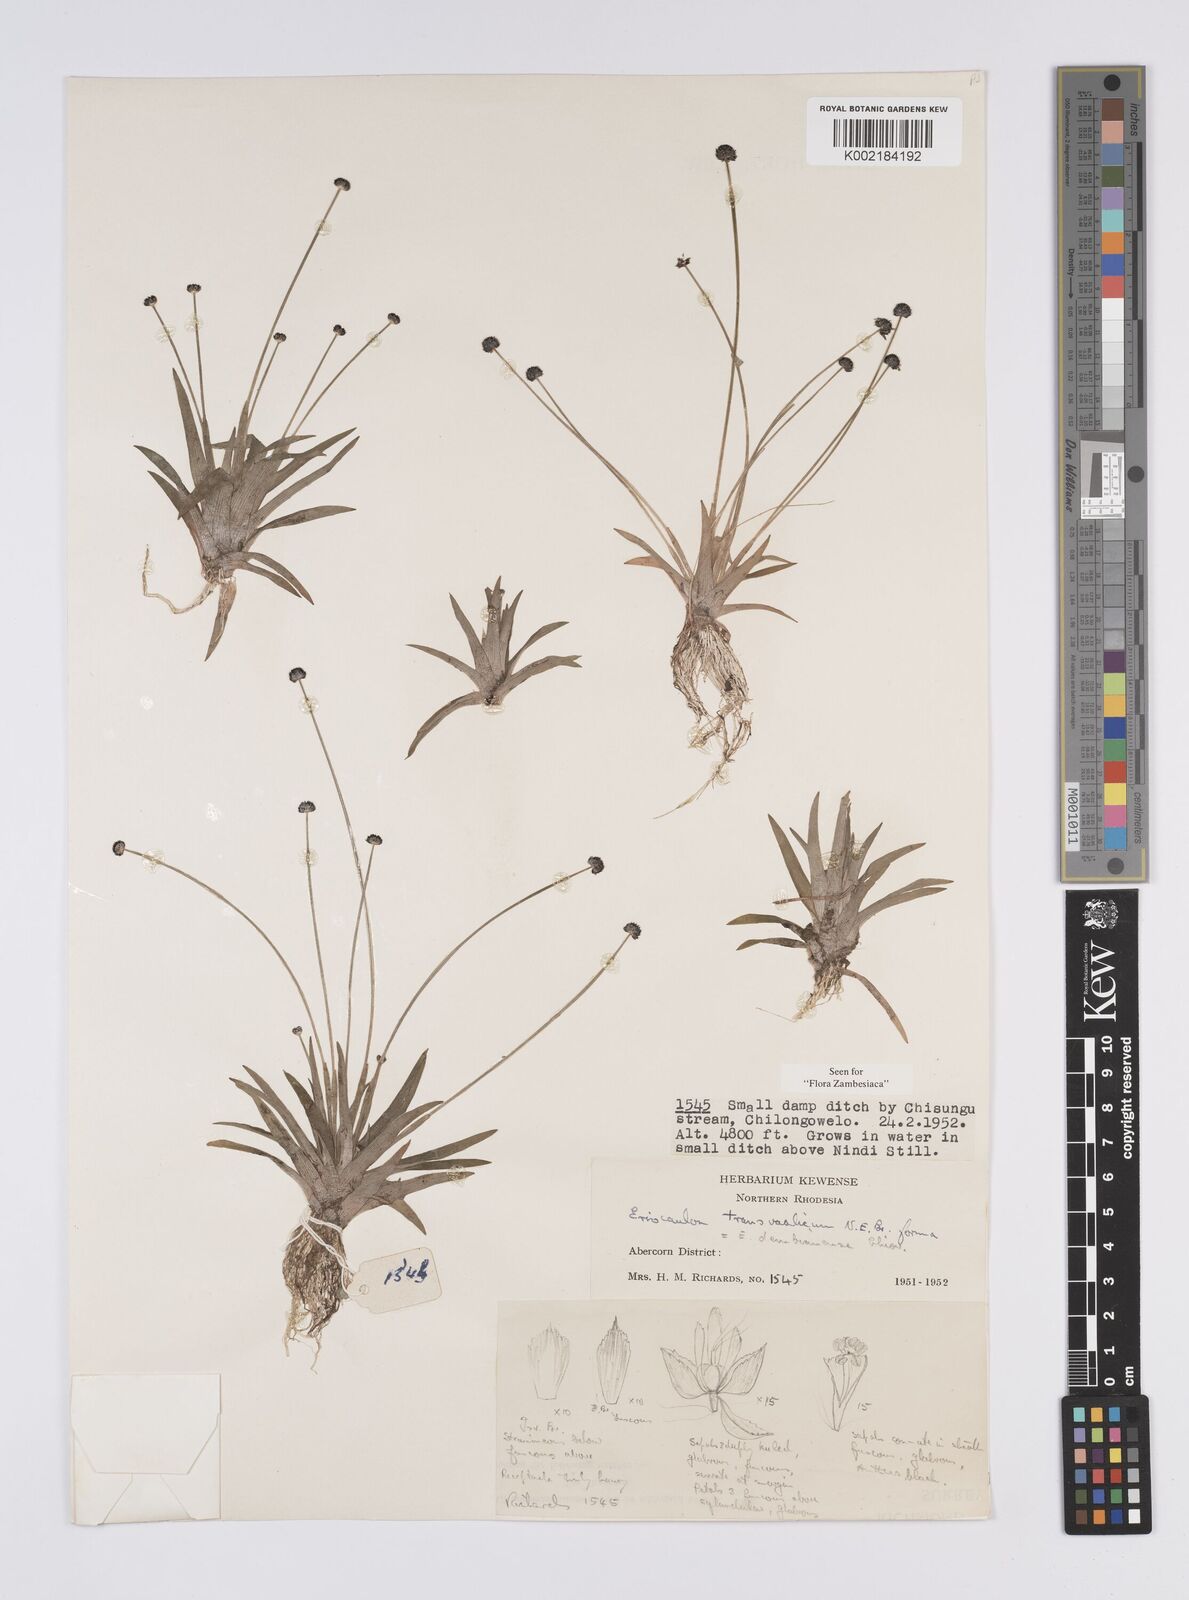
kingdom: Plantae
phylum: Tracheophyta
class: Liliopsida
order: Poales
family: Eriocaulaceae
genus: Eriocaulon
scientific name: Eriocaulon transvaalicum
